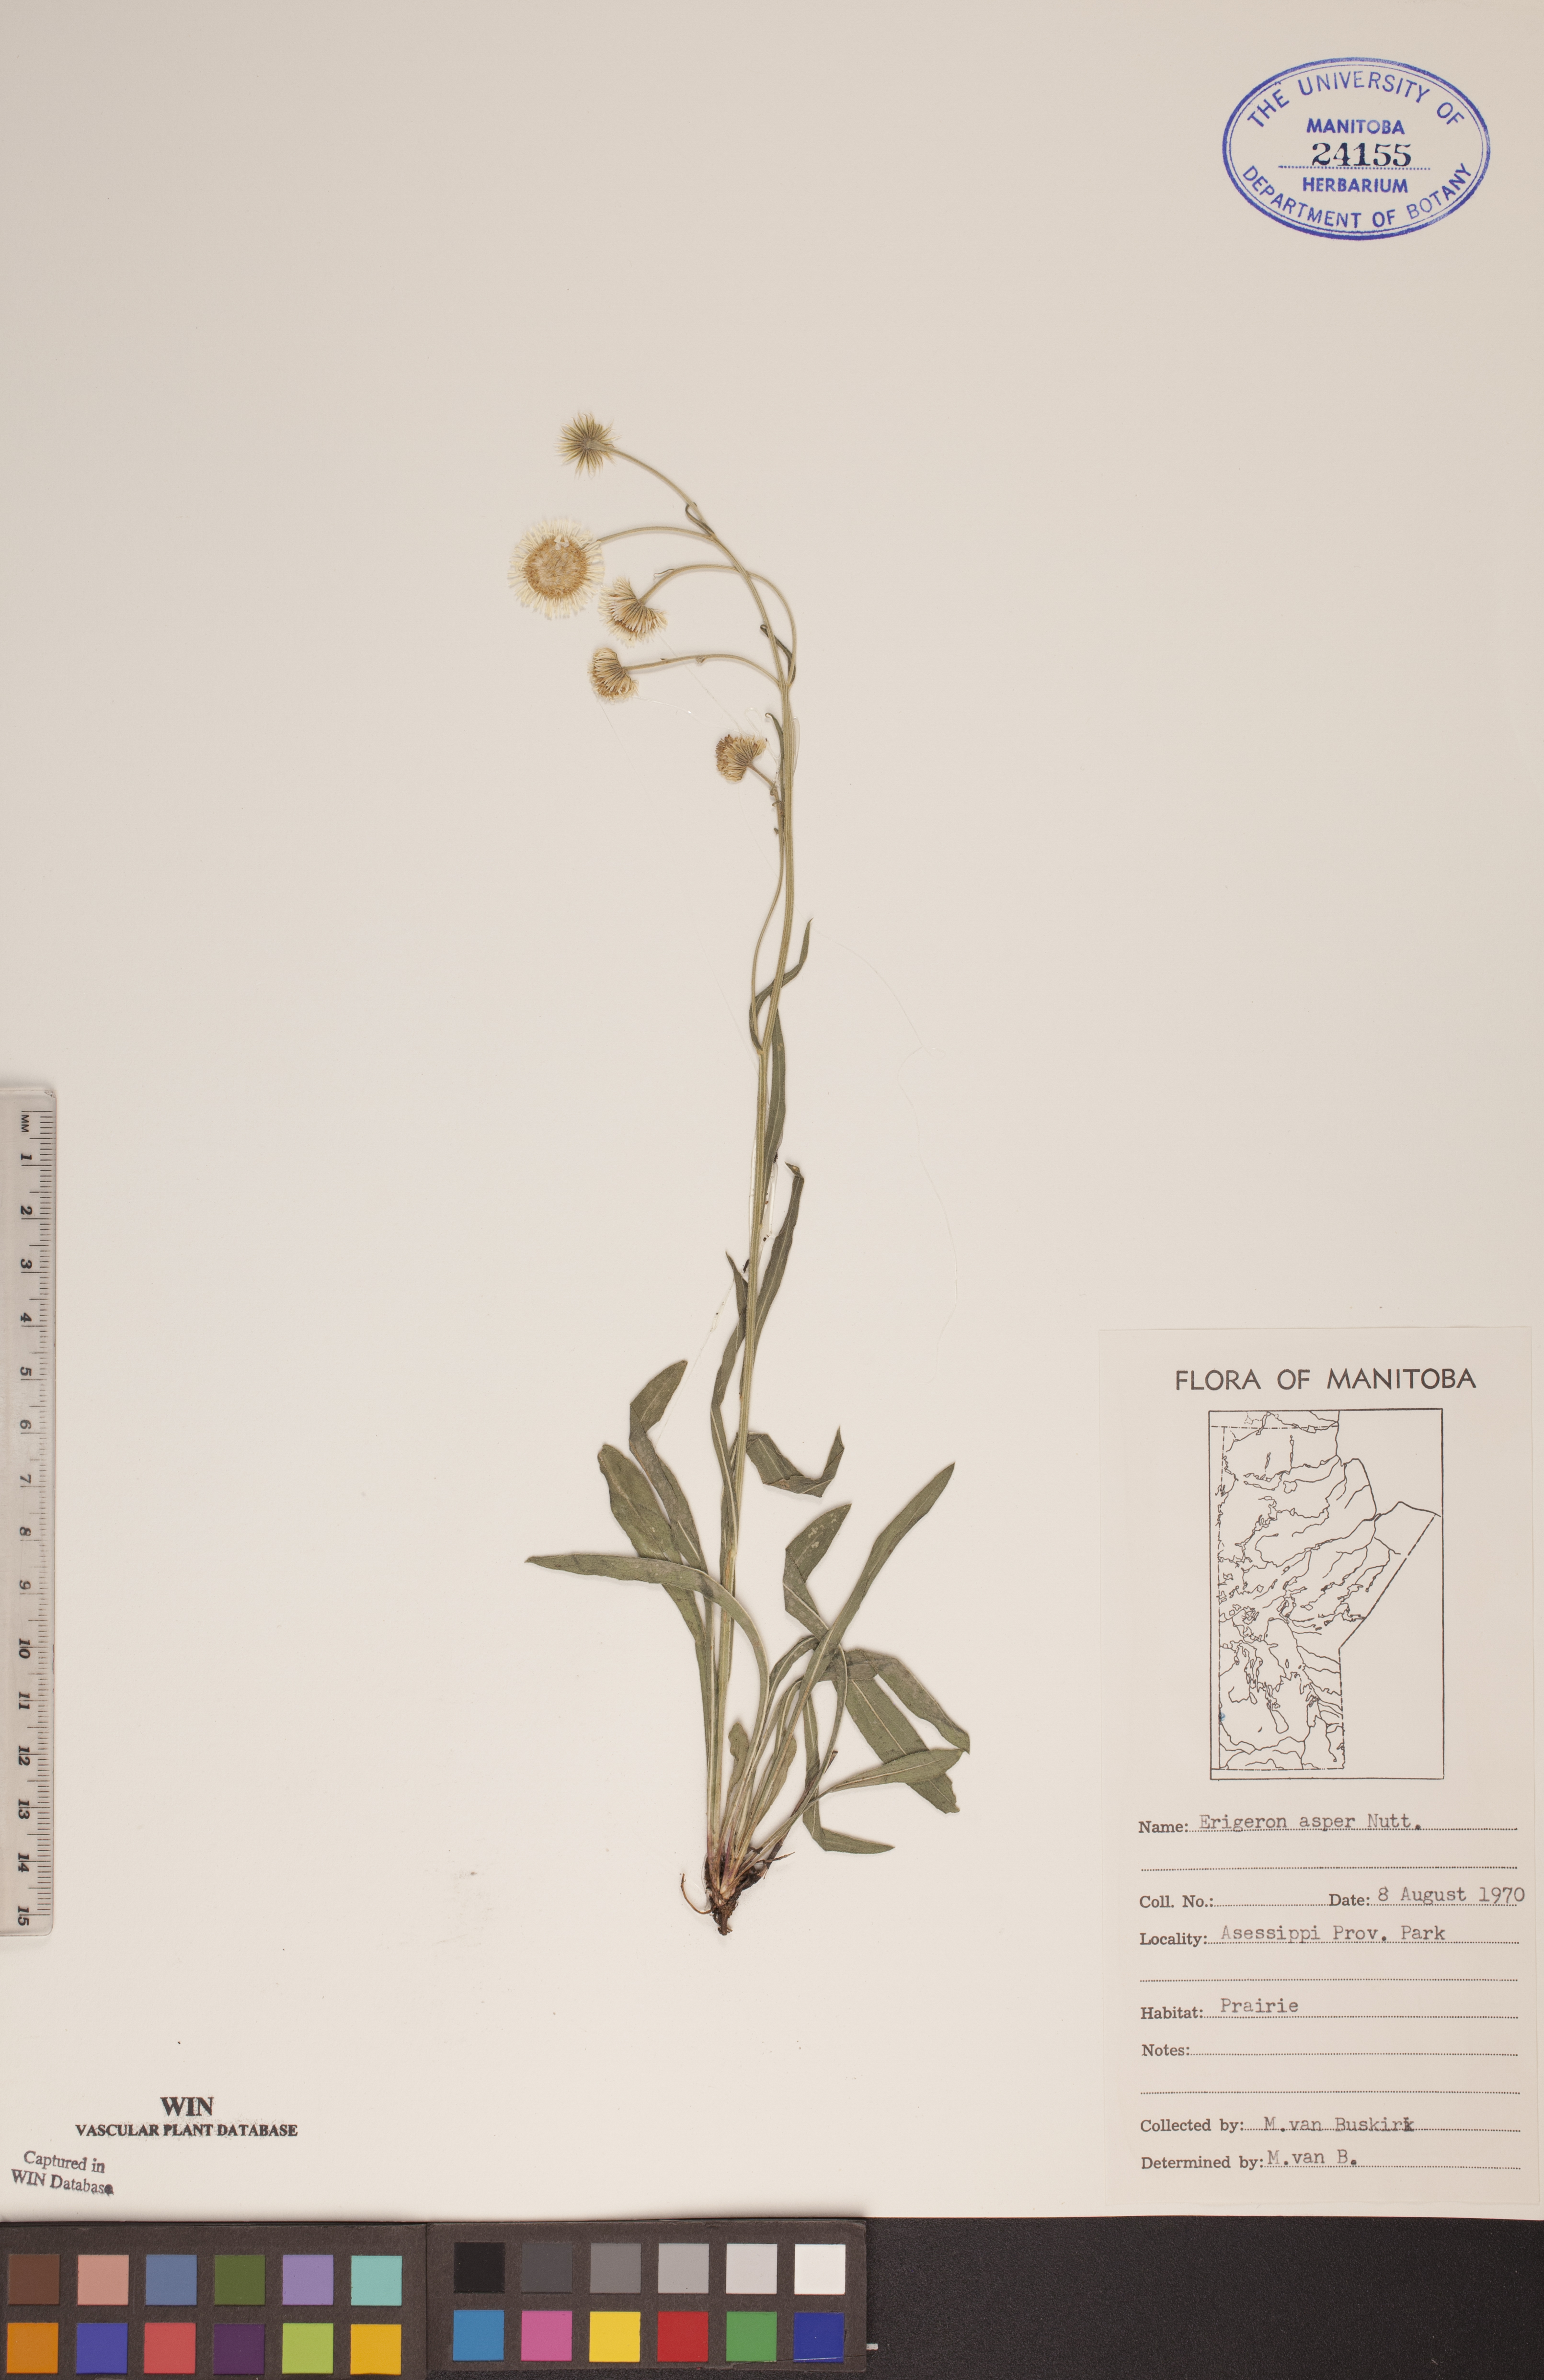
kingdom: Plantae
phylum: Tracheophyta
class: Magnoliopsida
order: Asterales
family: Asteraceae
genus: Erigeron
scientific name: Erigeron glabellus
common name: Smooth fleabane
